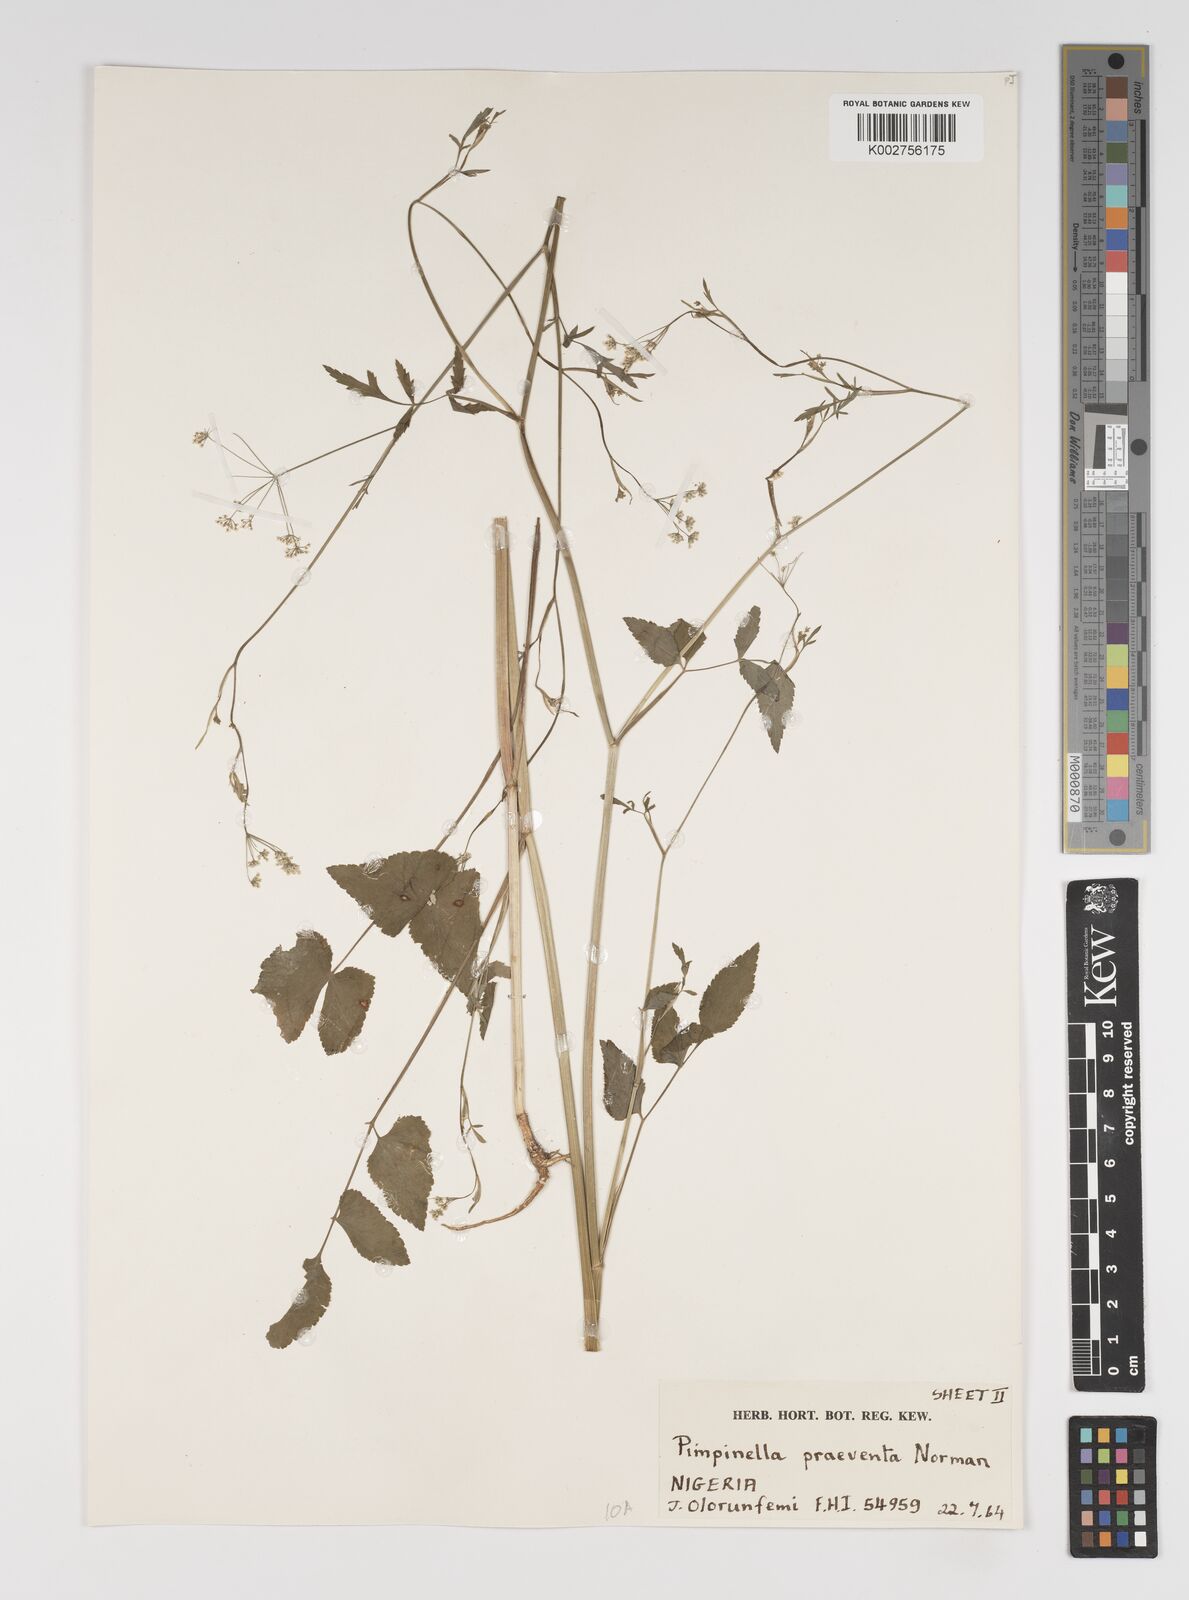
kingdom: Plantae
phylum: Tracheophyta
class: Magnoliopsida
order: Apiales
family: Apiaceae
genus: Pimpinella
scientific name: Pimpinella hirtella
